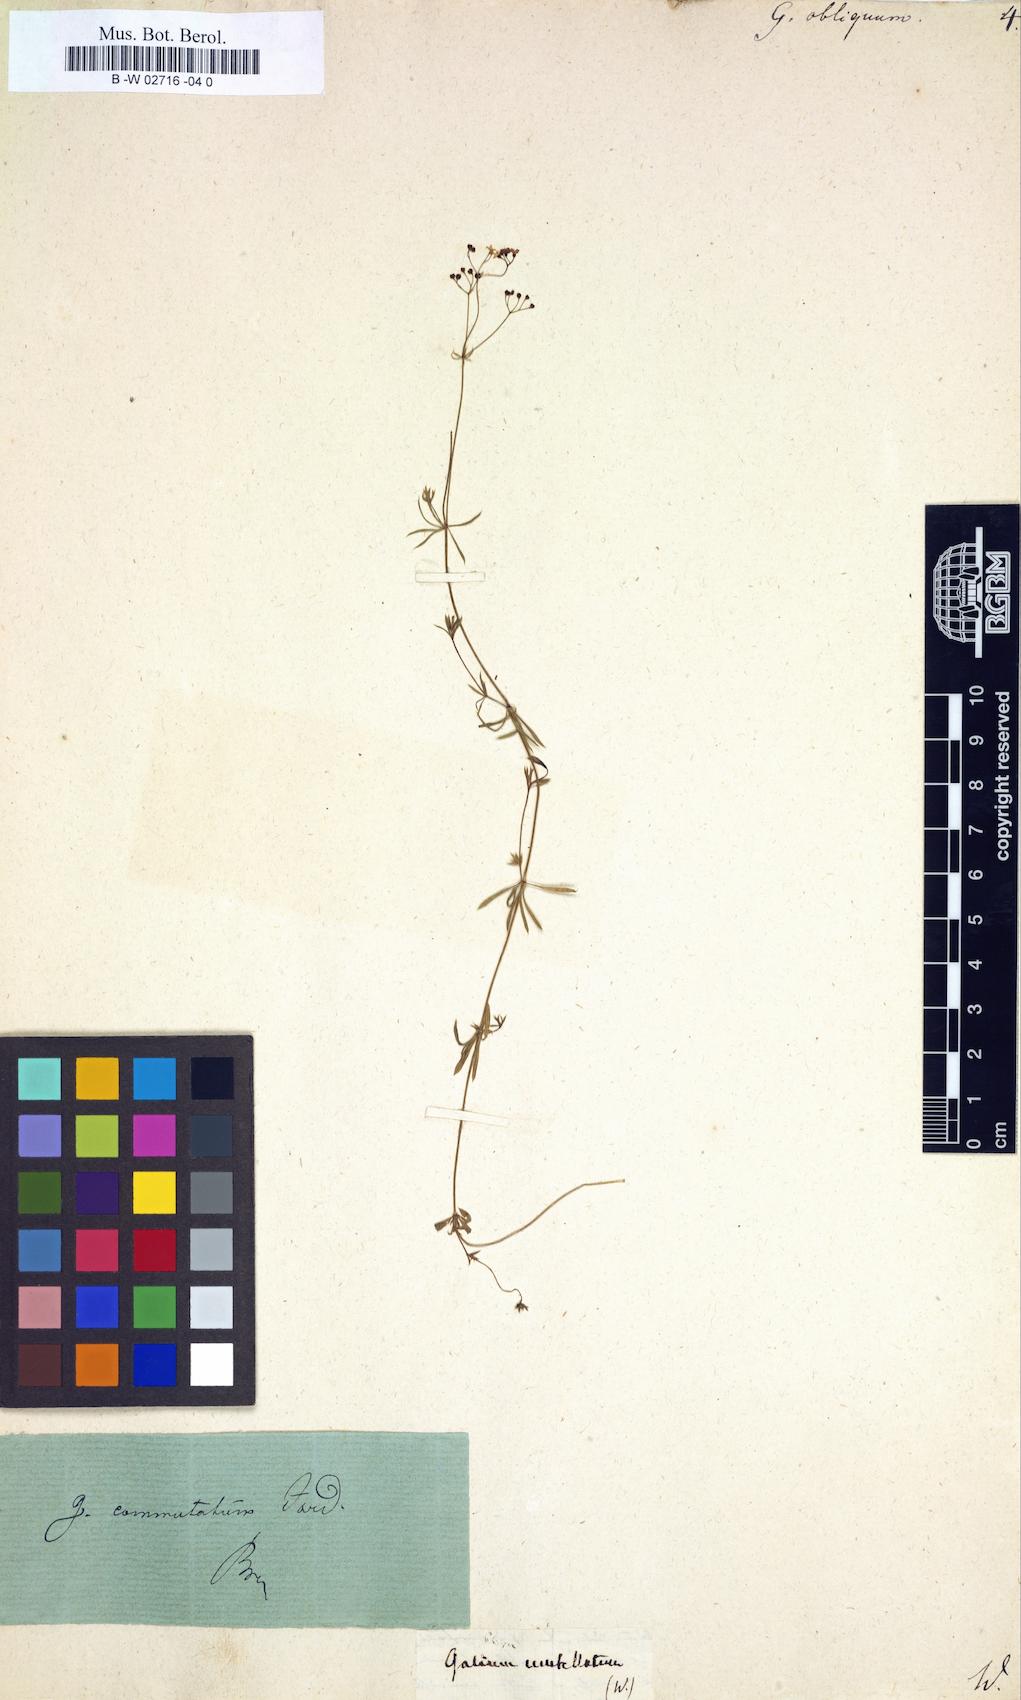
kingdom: Plantae
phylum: Tracheophyta
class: Magnoliopsida
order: Gentianales
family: Rubiaceae
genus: Galium
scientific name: Galium obliquum
